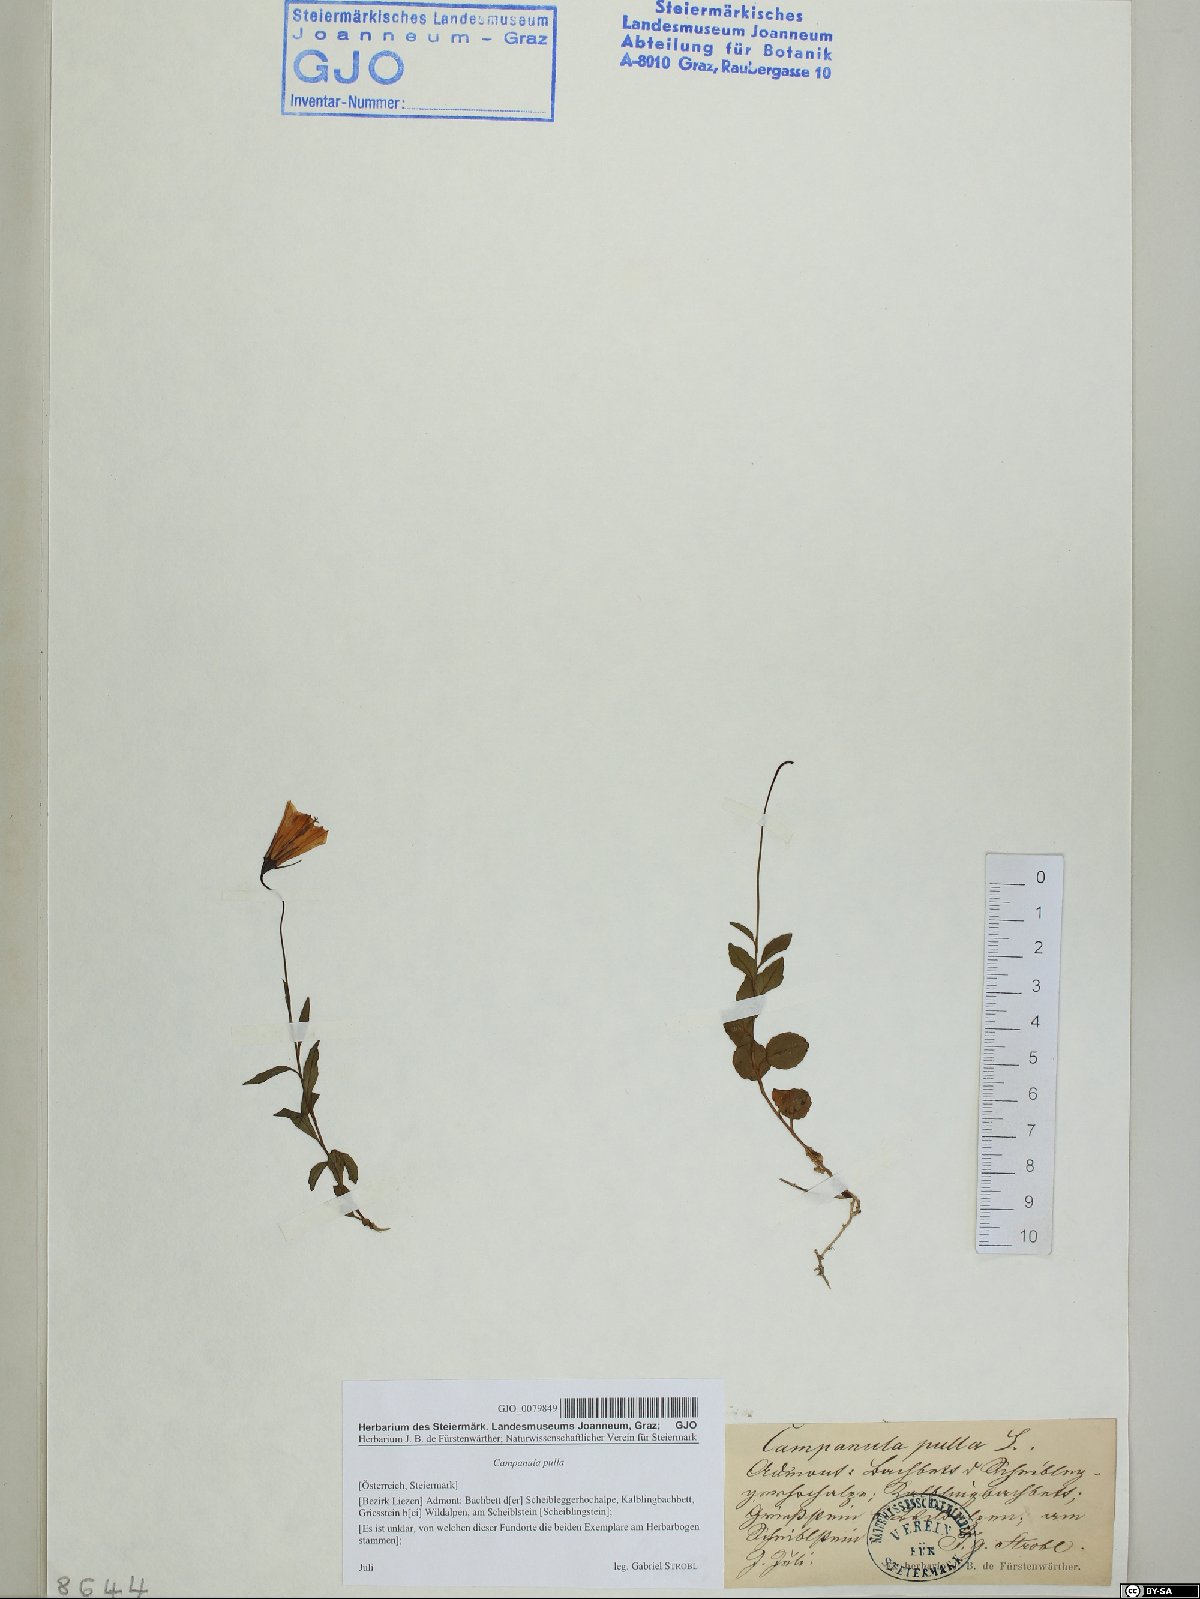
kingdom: Plantae
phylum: Tracheophyta
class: Magnoliopsida
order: Asterales
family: Campanulaceae
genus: Campanula
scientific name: Campanula pulla
